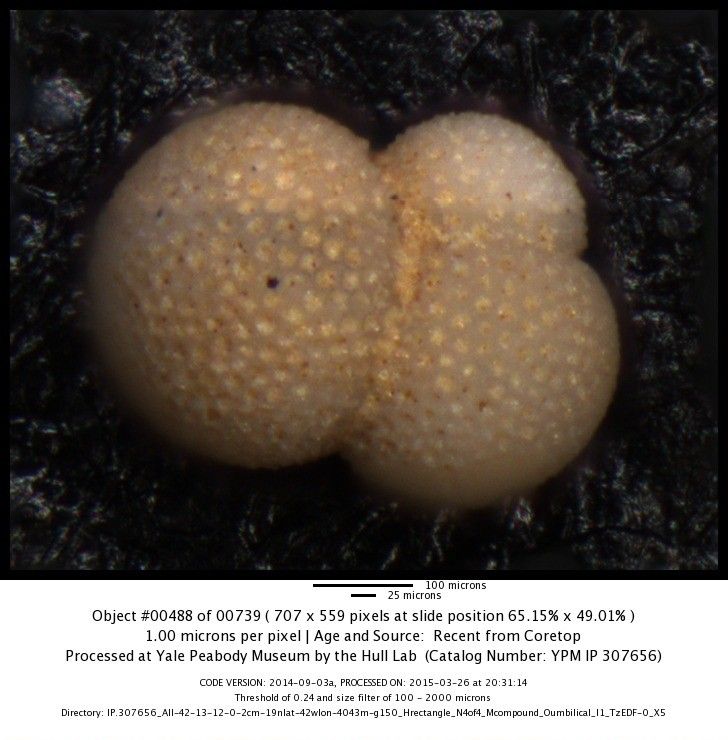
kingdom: Chromista
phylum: Foraminifera
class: Globothalamea
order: Rotaliida
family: Globigerinidae
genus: Globigerinoides
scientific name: Globigerinoides sacculifer
